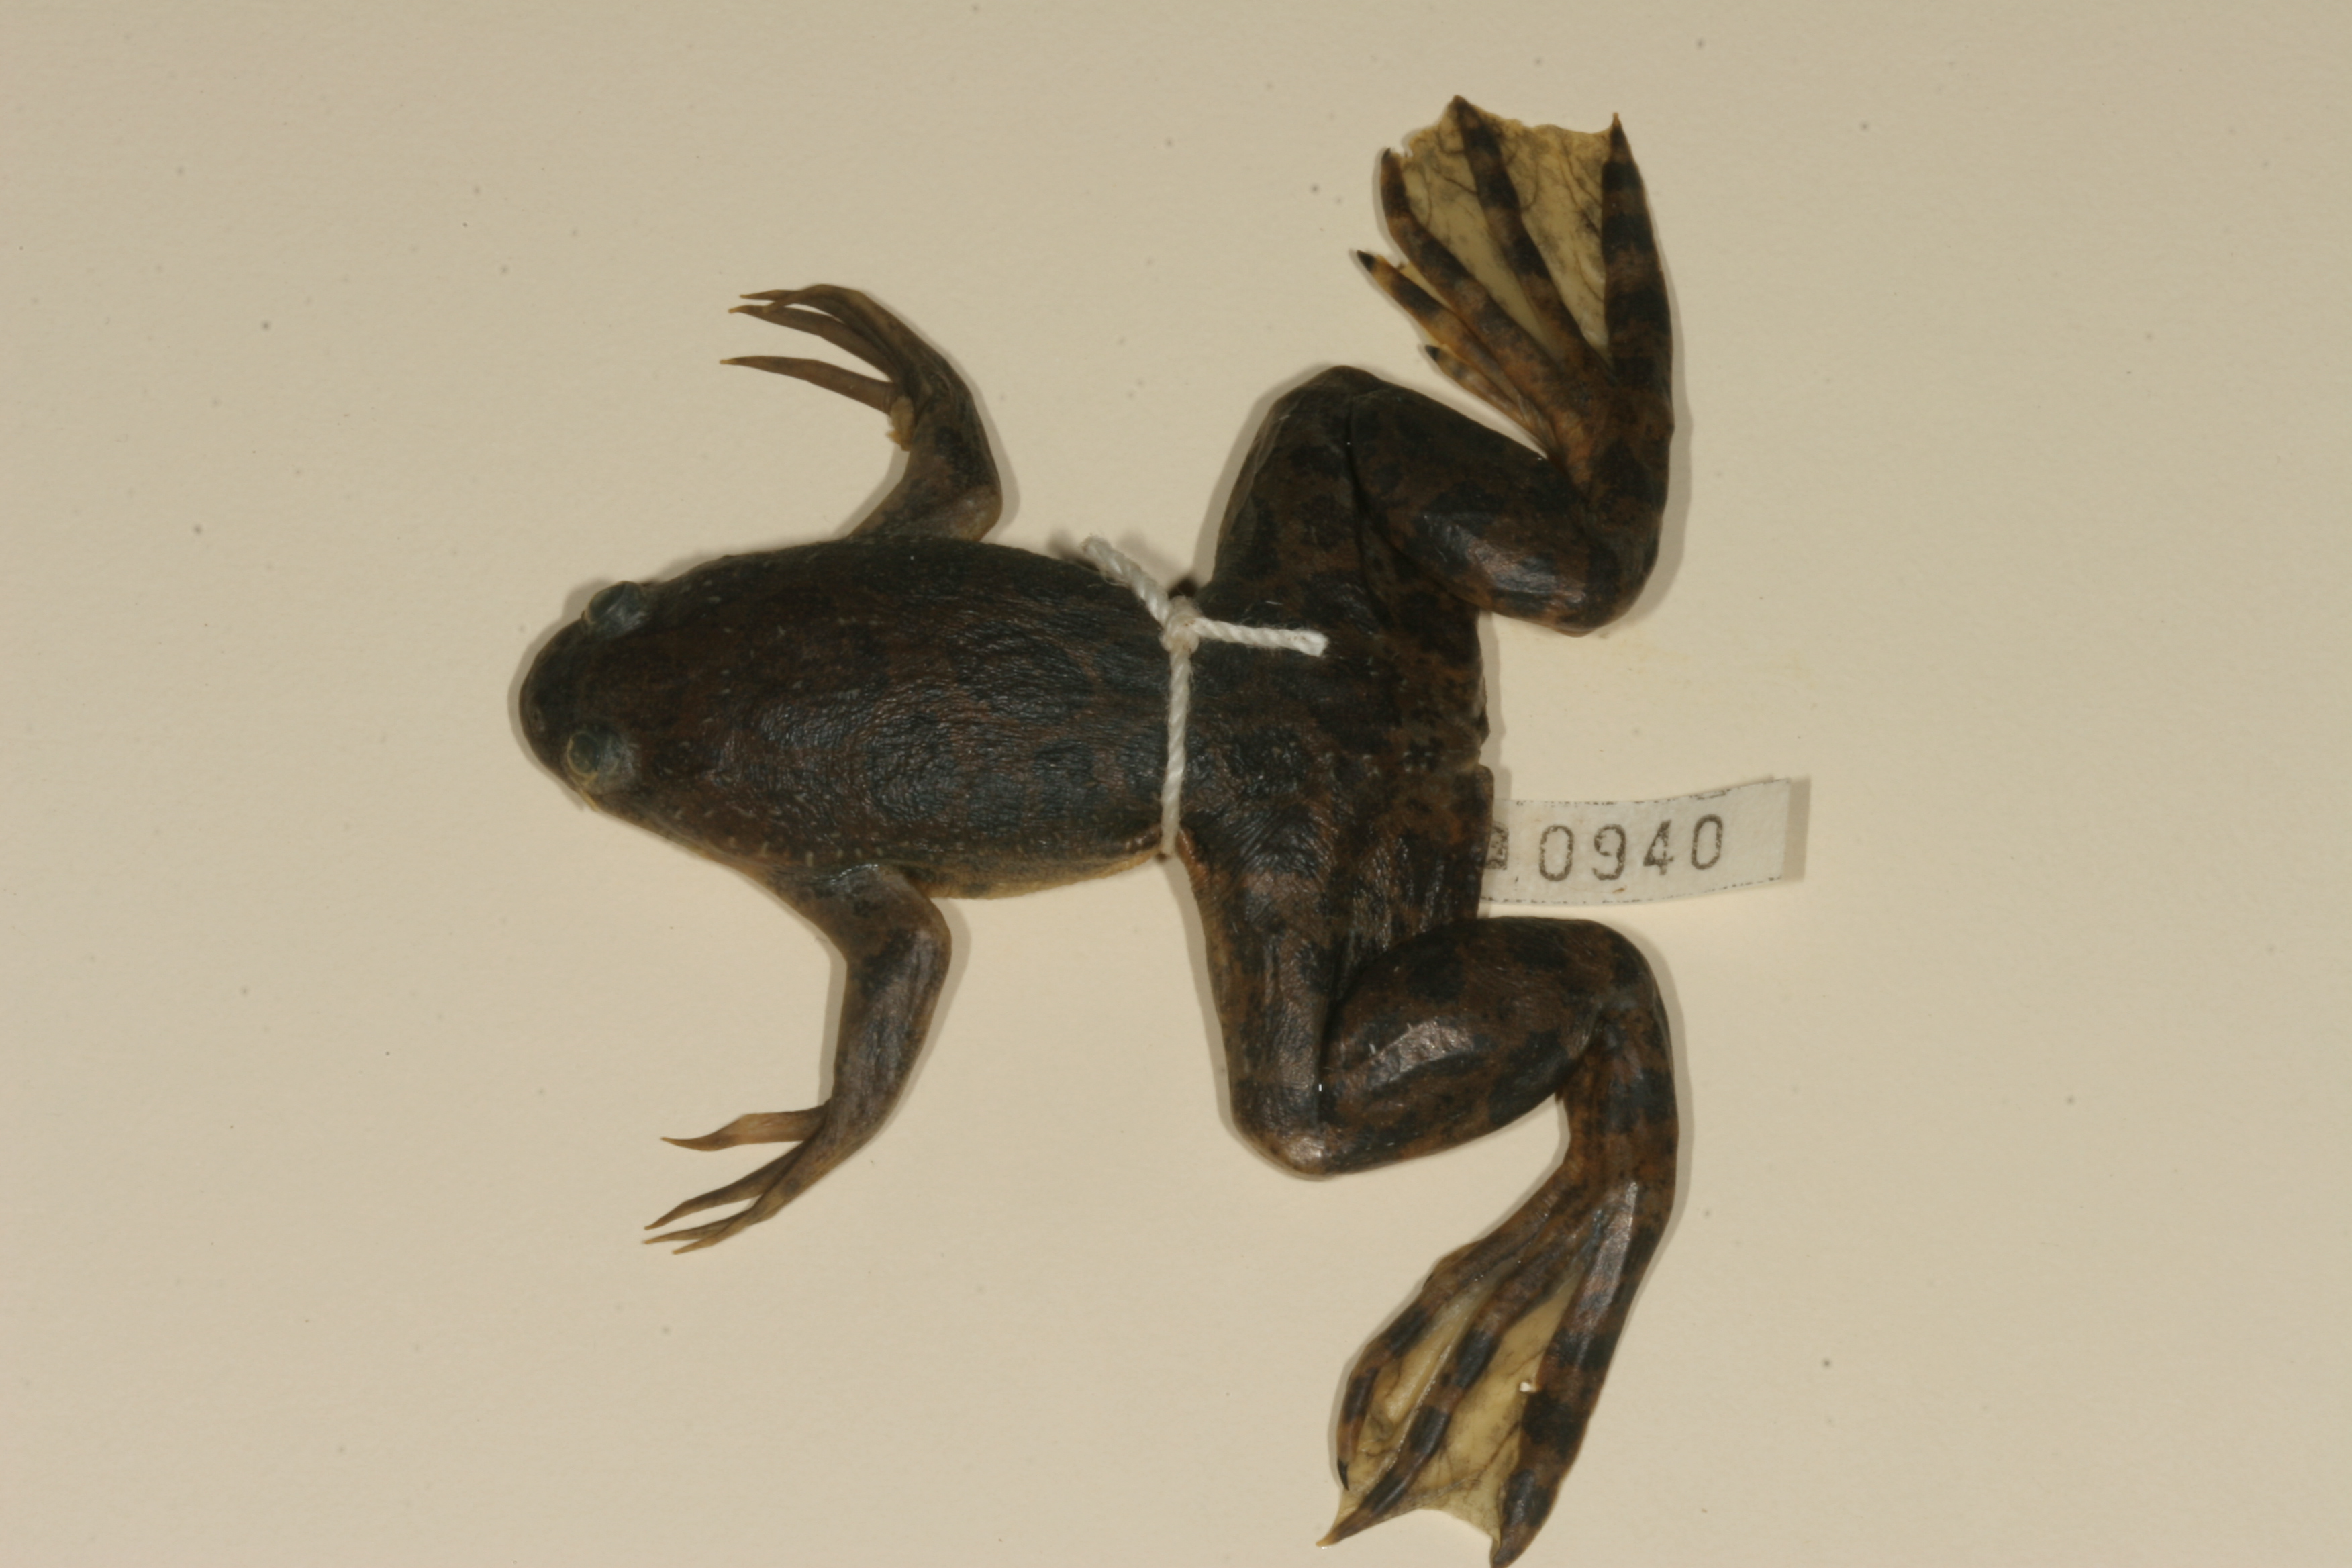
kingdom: Animalia
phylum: Chordata
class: Amphibia
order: Anura
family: Pipidae
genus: Xenopus
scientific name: Xenopus muelleri
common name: Muller's clawed frog
